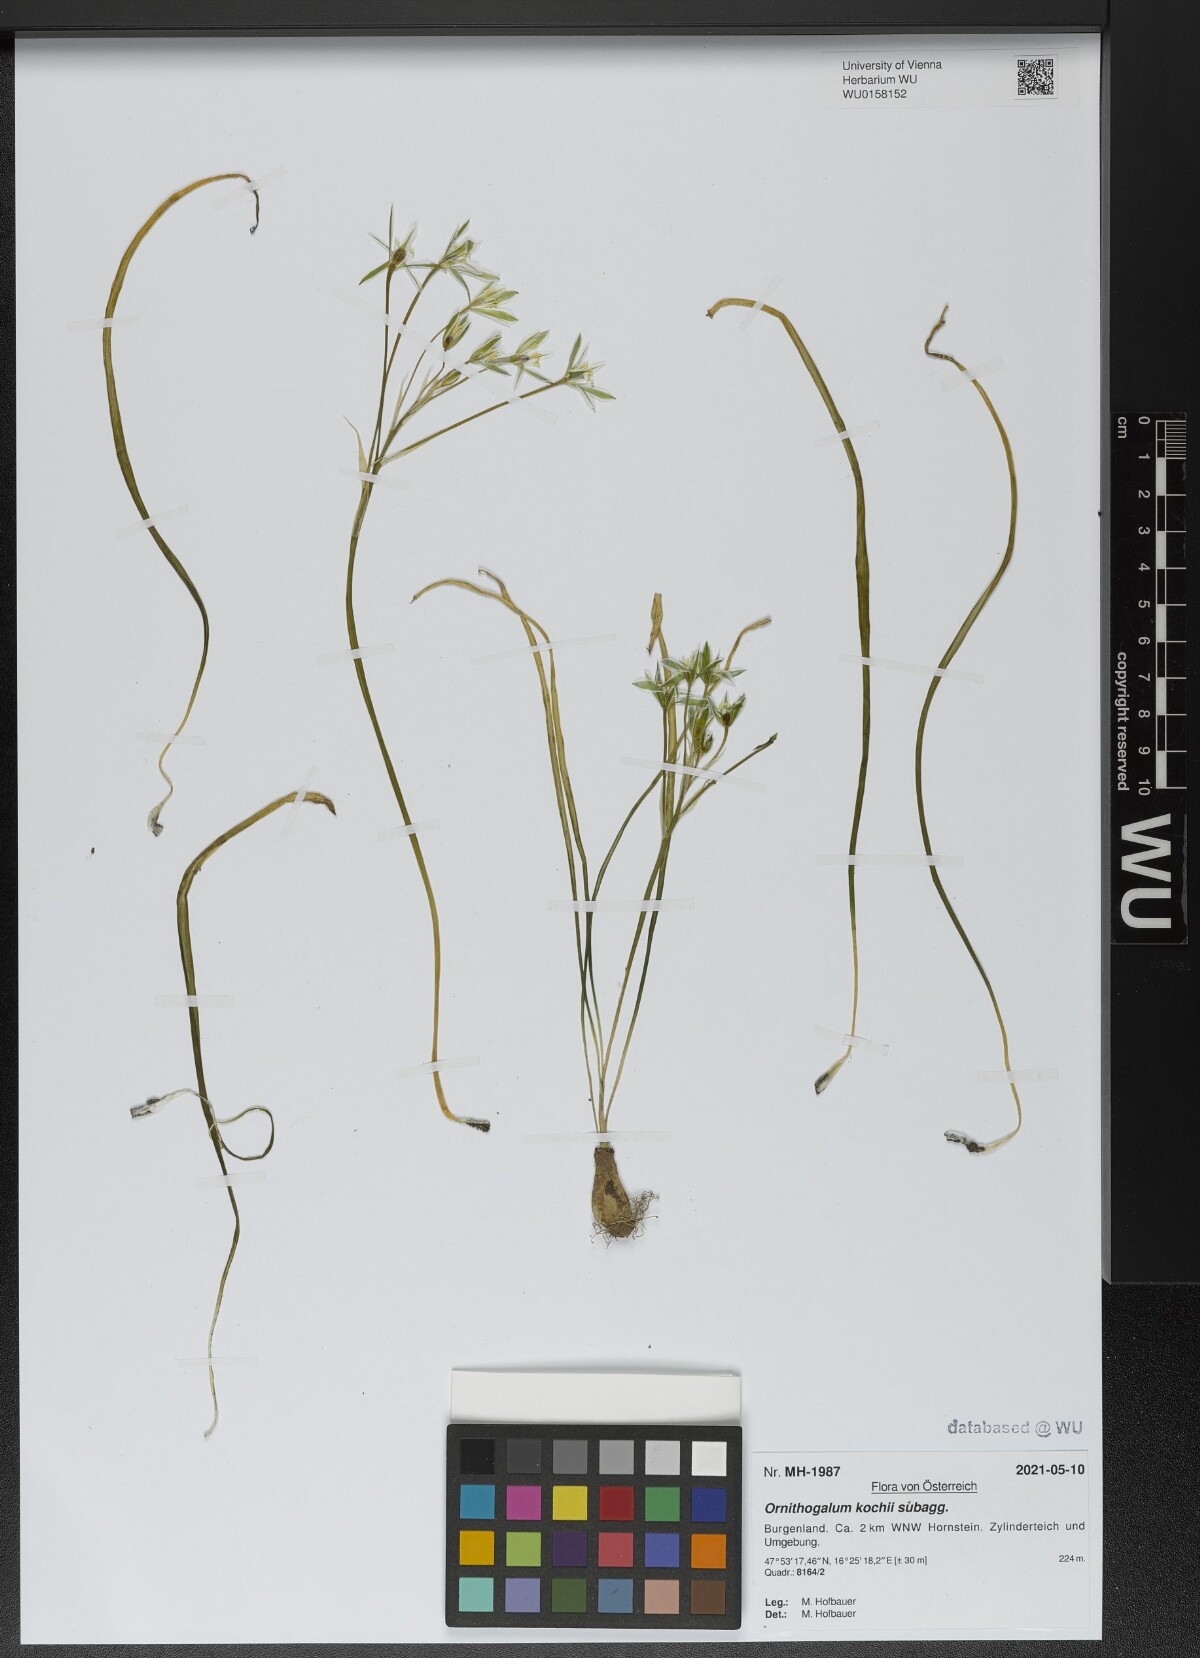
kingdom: Plantae
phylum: Tracheophyta
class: Liliopsida
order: Asparagales
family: Asparagaceae
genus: Ornithogalum
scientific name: Ornithogalum orthophyllum
